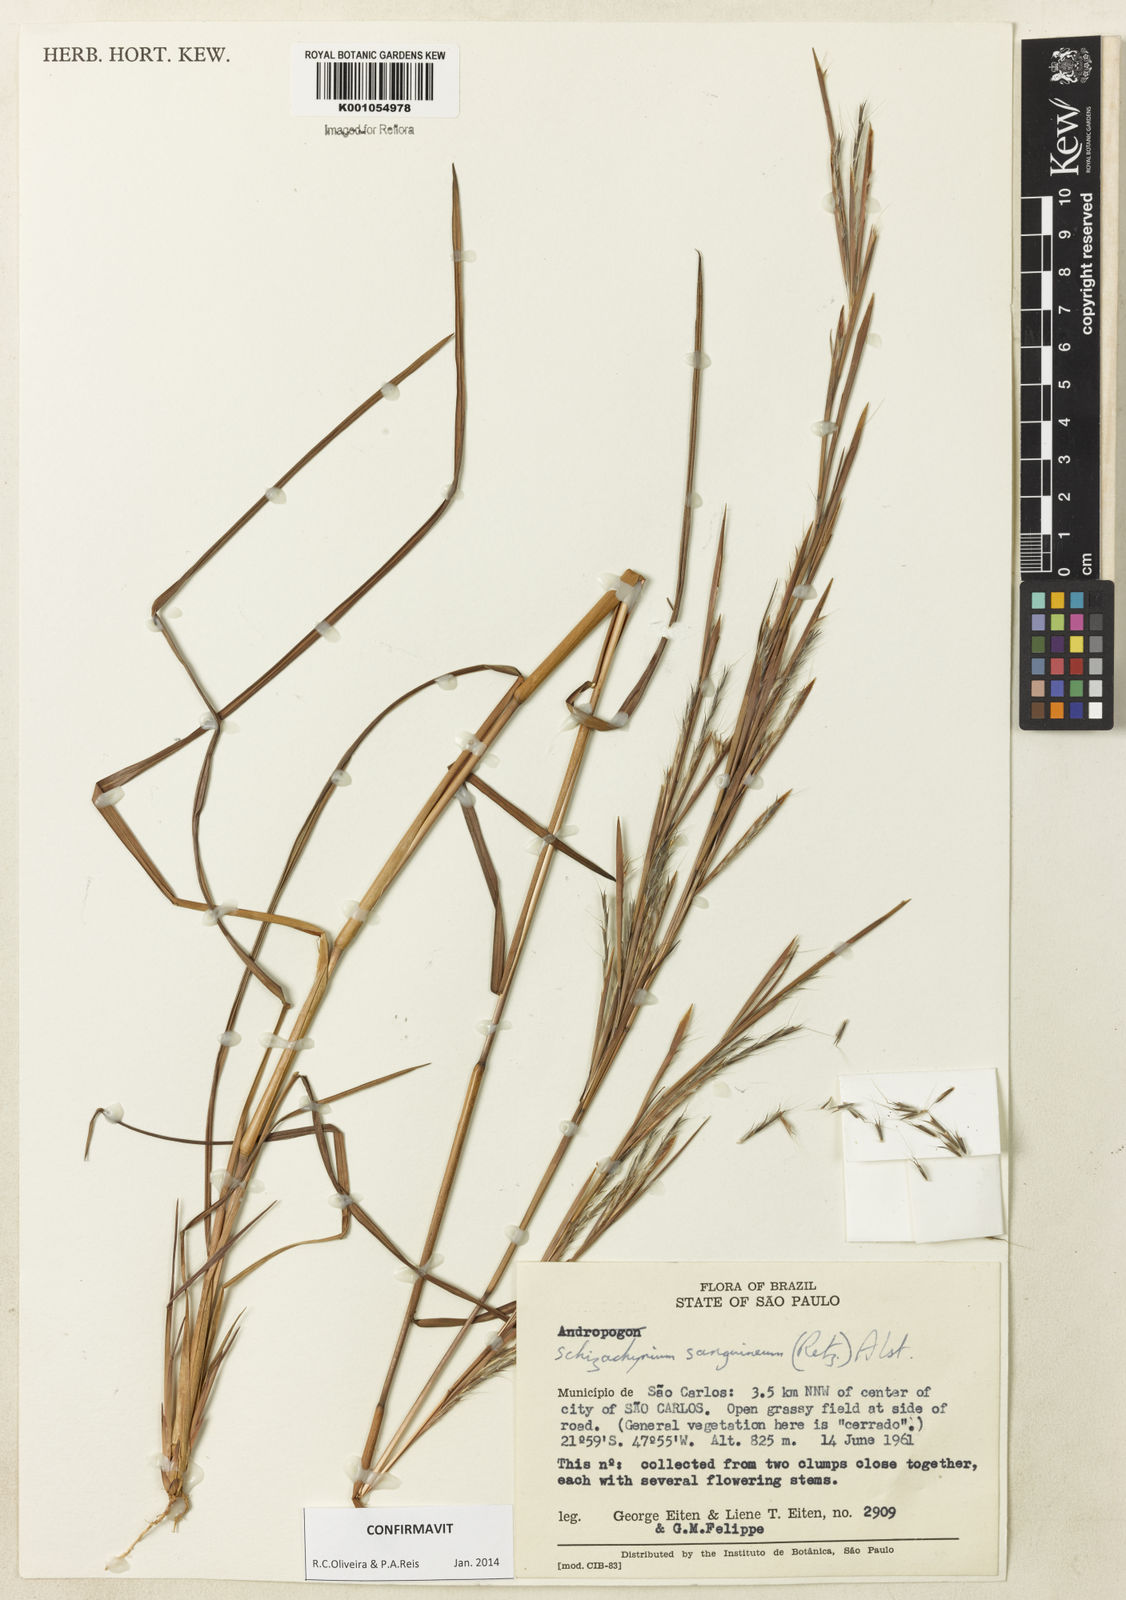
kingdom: Plantae
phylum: Tracheophyta
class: Liliopsida
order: Poales
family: Poaceae
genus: Schizachyrium
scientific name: Schizachyrium sanguineum
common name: Crimson bluestem
